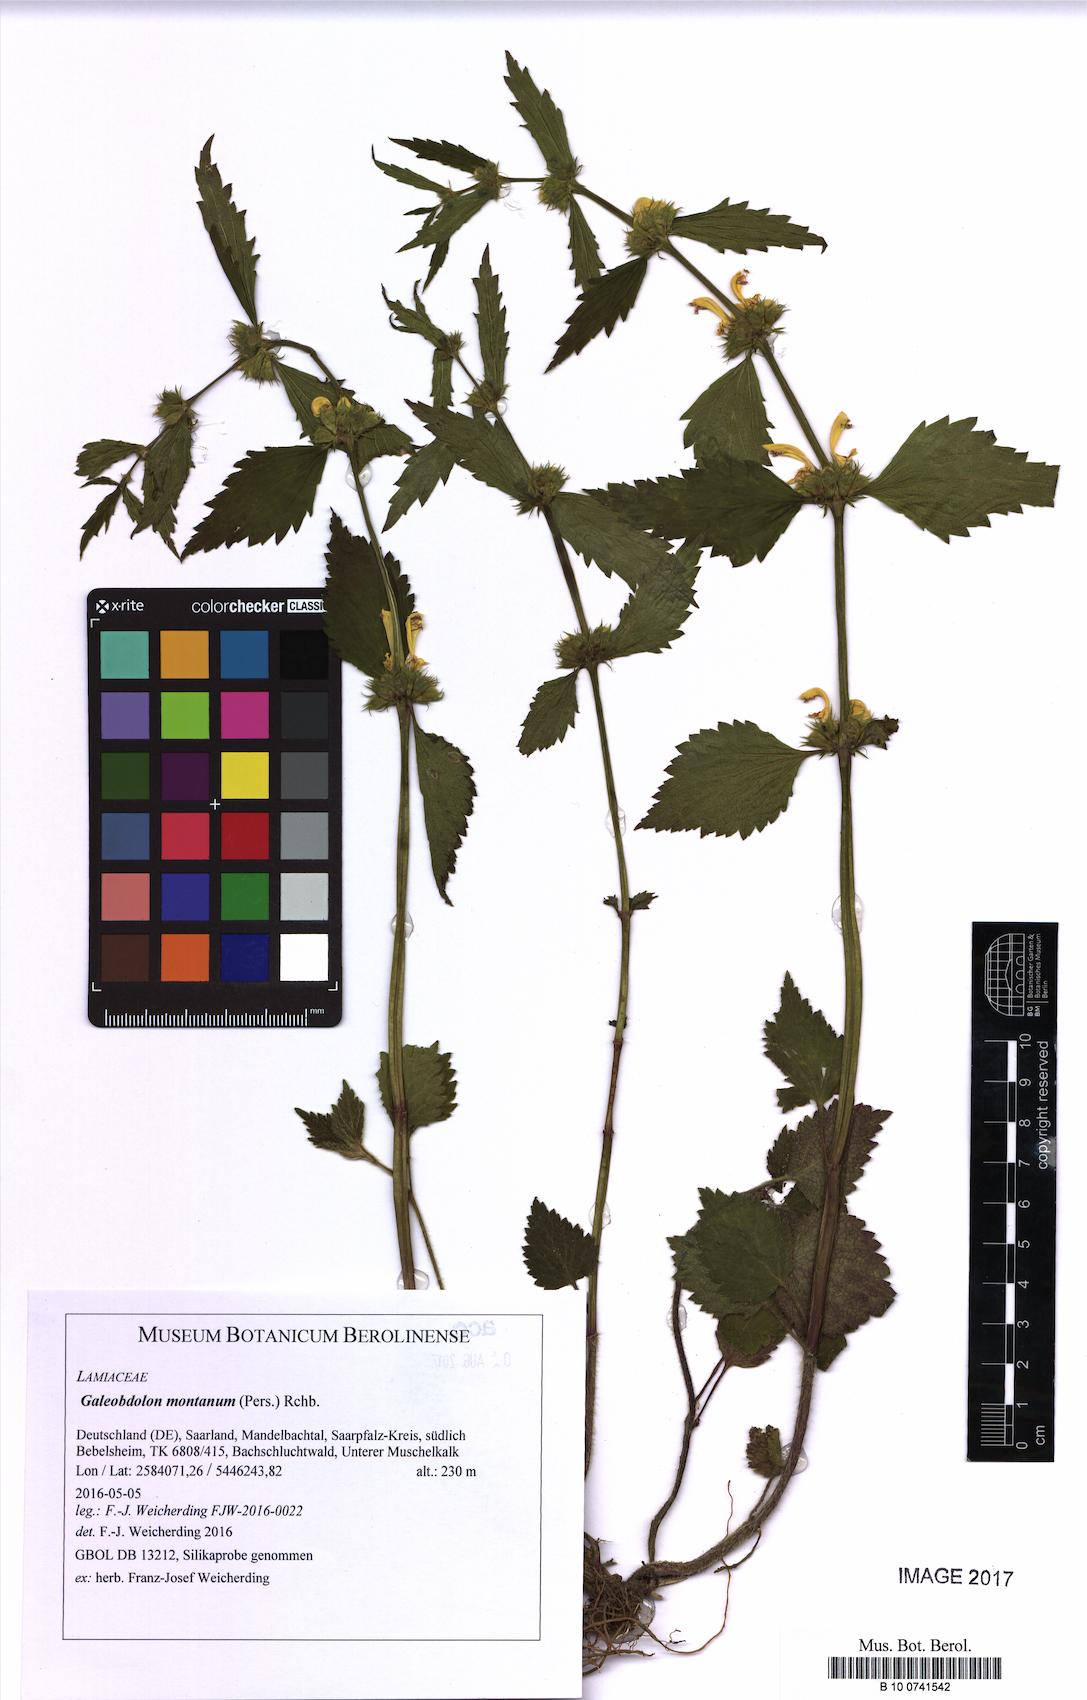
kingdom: Plantae
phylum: Tracheophyta
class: Magnoliopsida
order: Lamiales
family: Lamiaceae
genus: Lamium
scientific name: Lamium galeobdolon
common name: Yellow archangel
